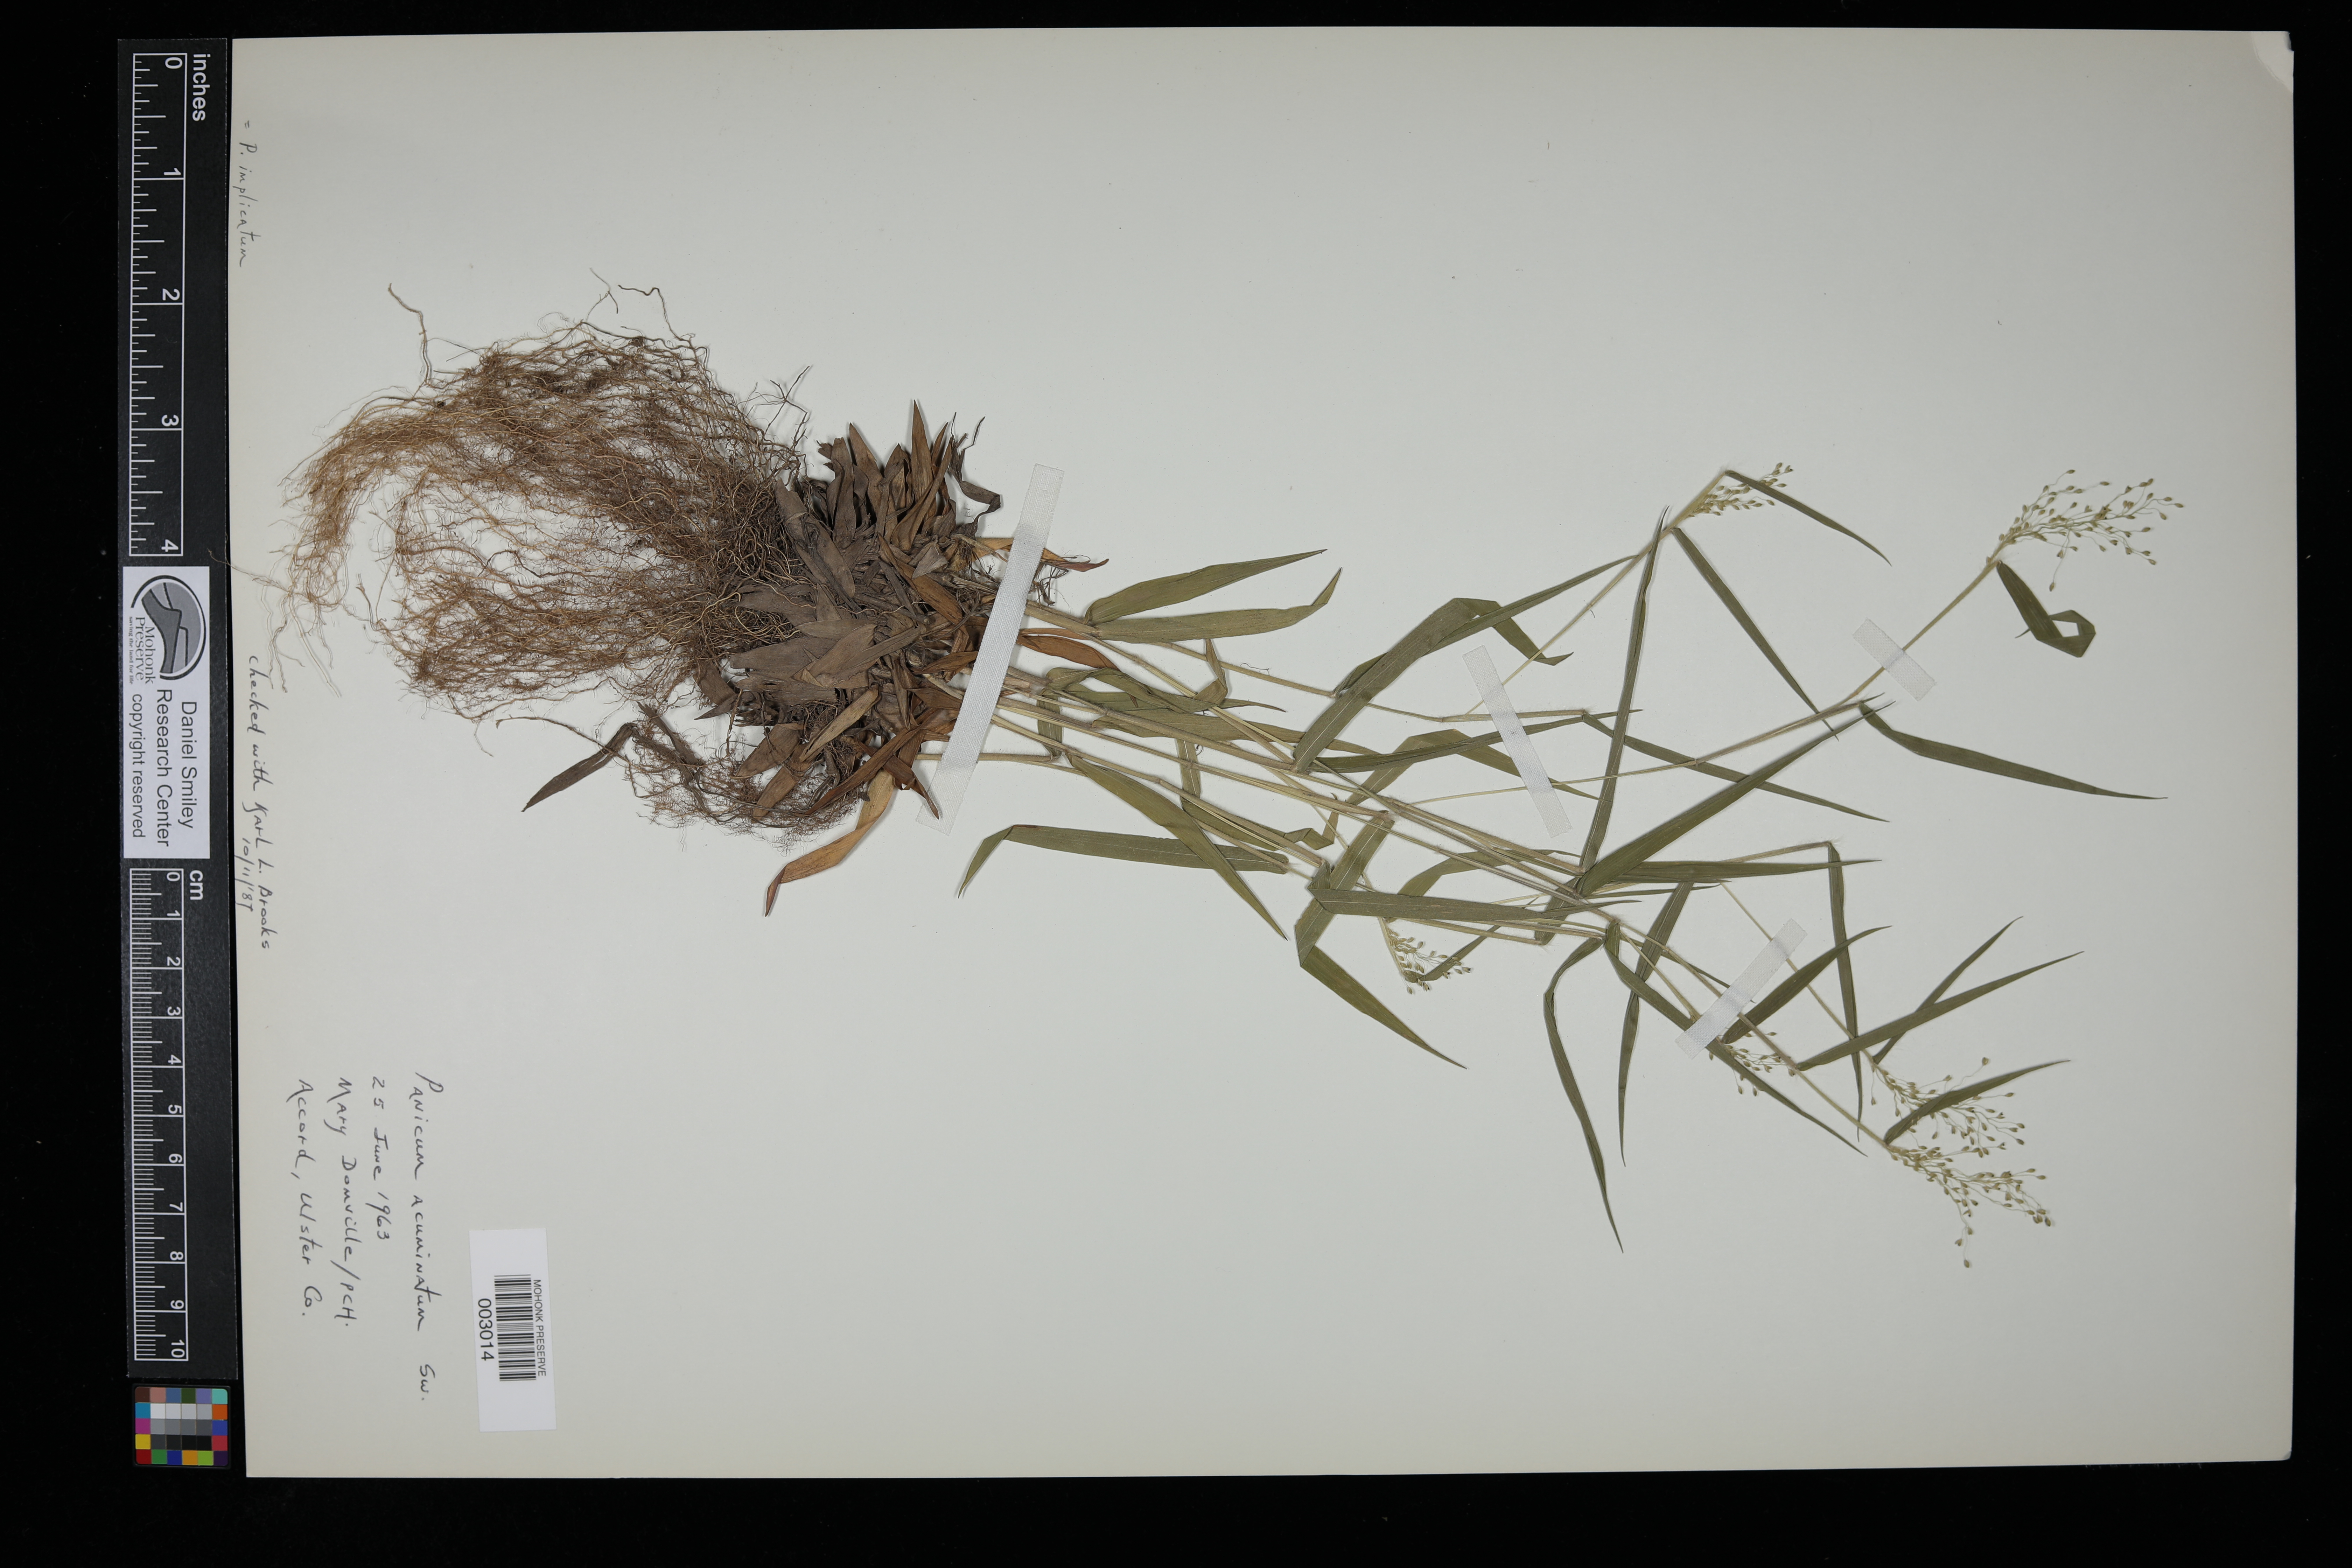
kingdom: Plantae
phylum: Tracheophyta
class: Liliopsida
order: Poales
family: Poaceae
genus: Dichanthelium
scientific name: Dichanthelium acuminatum
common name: Hairy panic grass
